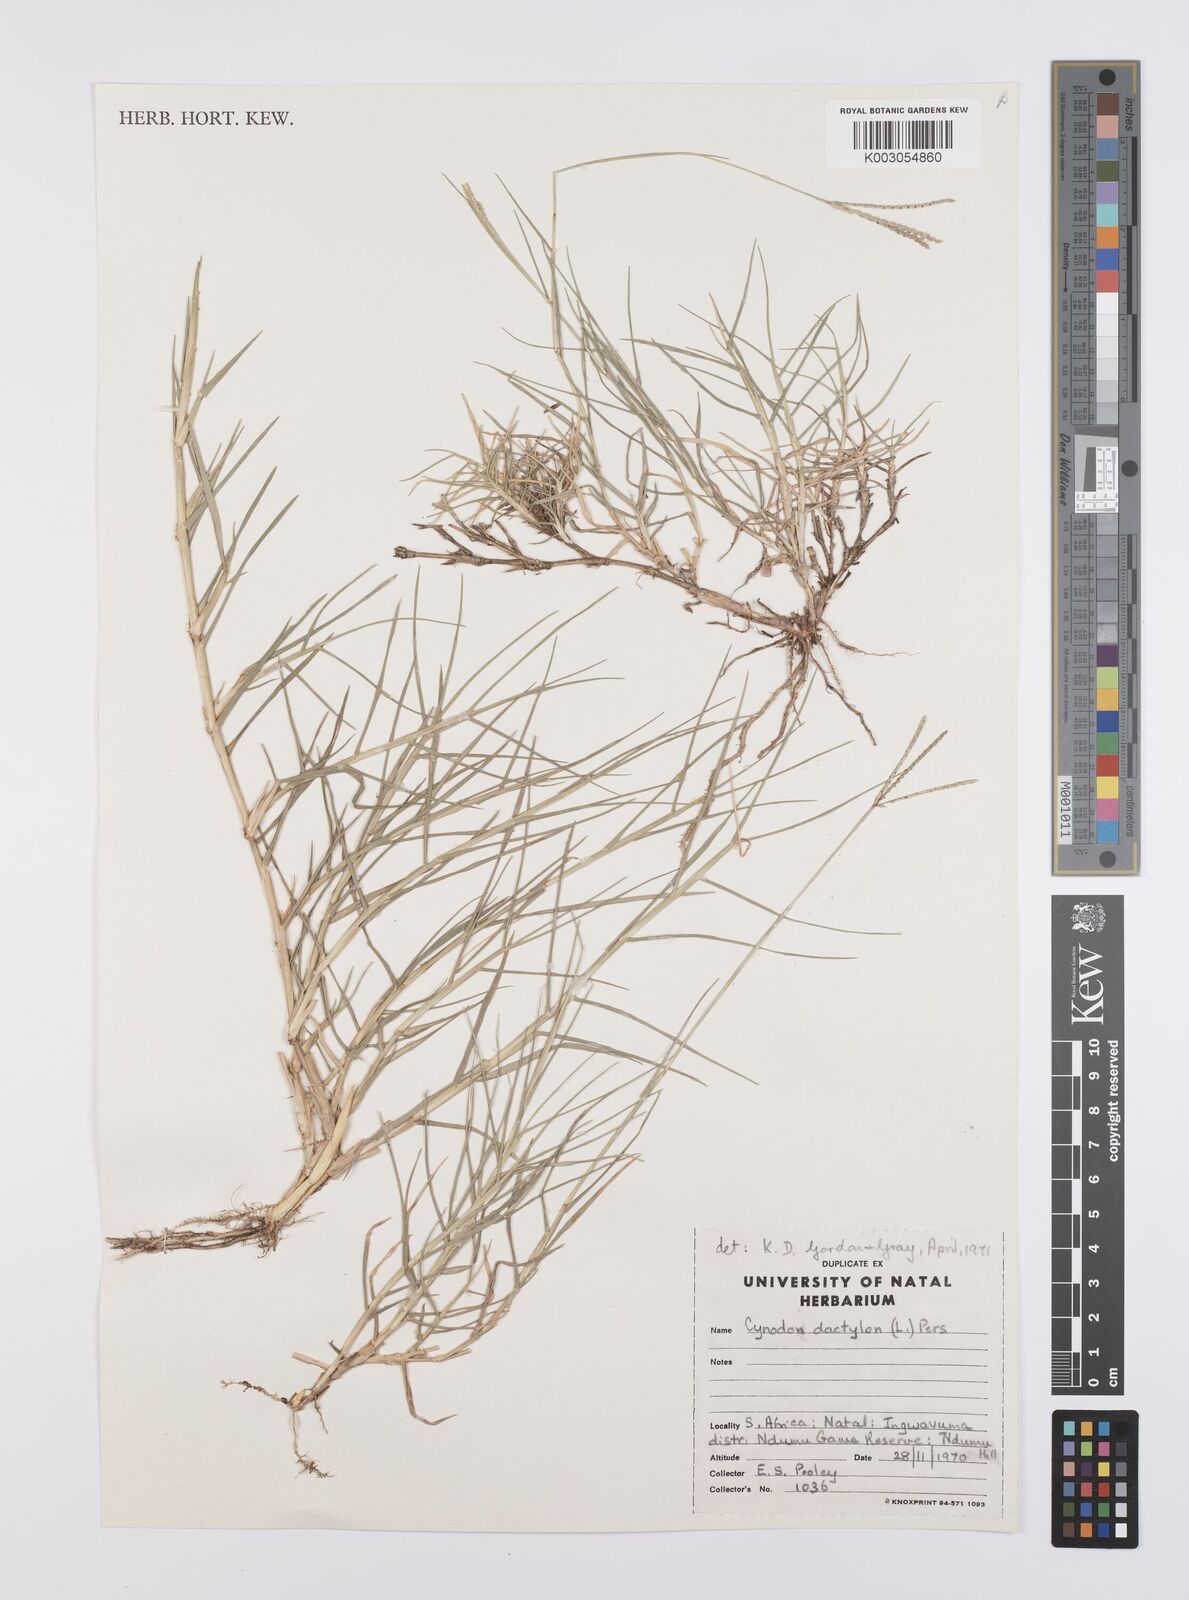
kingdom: Plantae
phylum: Tracheophyta
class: Liliopsida
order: Poales
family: Poaceae
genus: Cynodon
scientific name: Cynodon dactylon
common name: Bermuda grass
